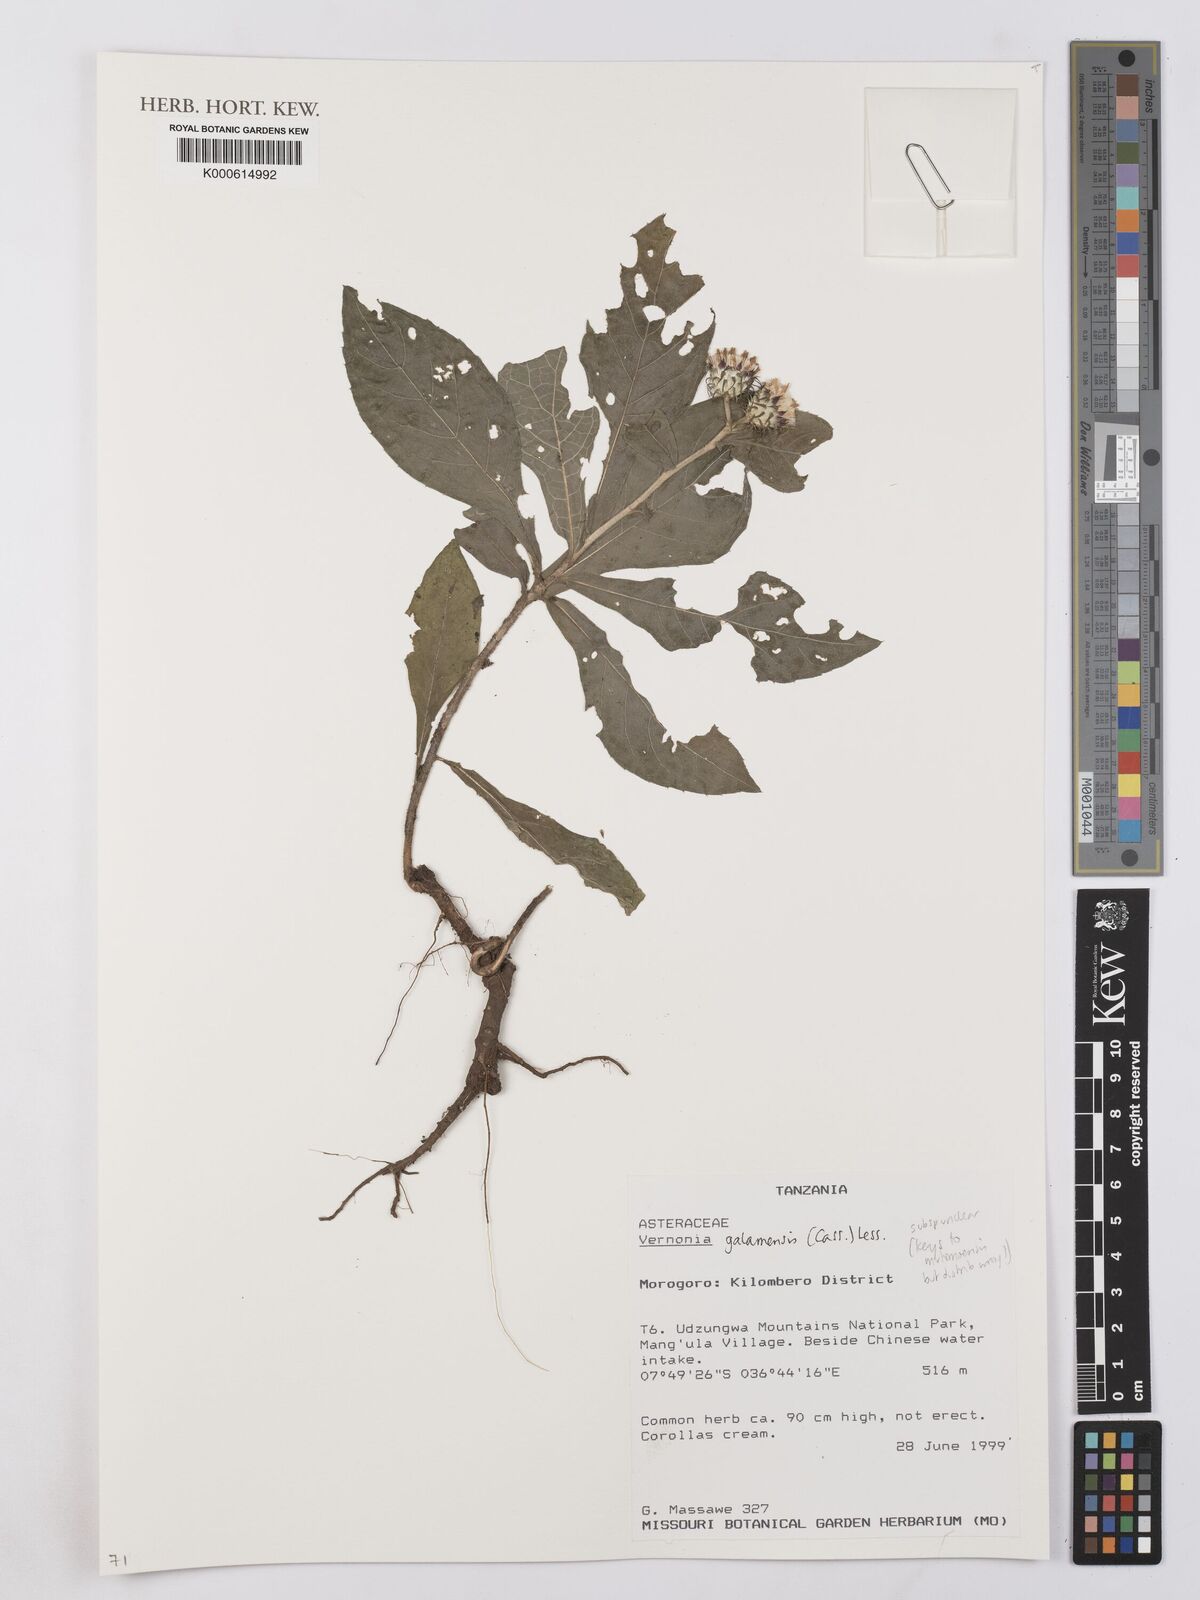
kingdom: Plantae
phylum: Tracheophyta
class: Magnoliopsida
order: Asterales
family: Asteraceae
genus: Vernonia
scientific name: Vernonia galamensis
